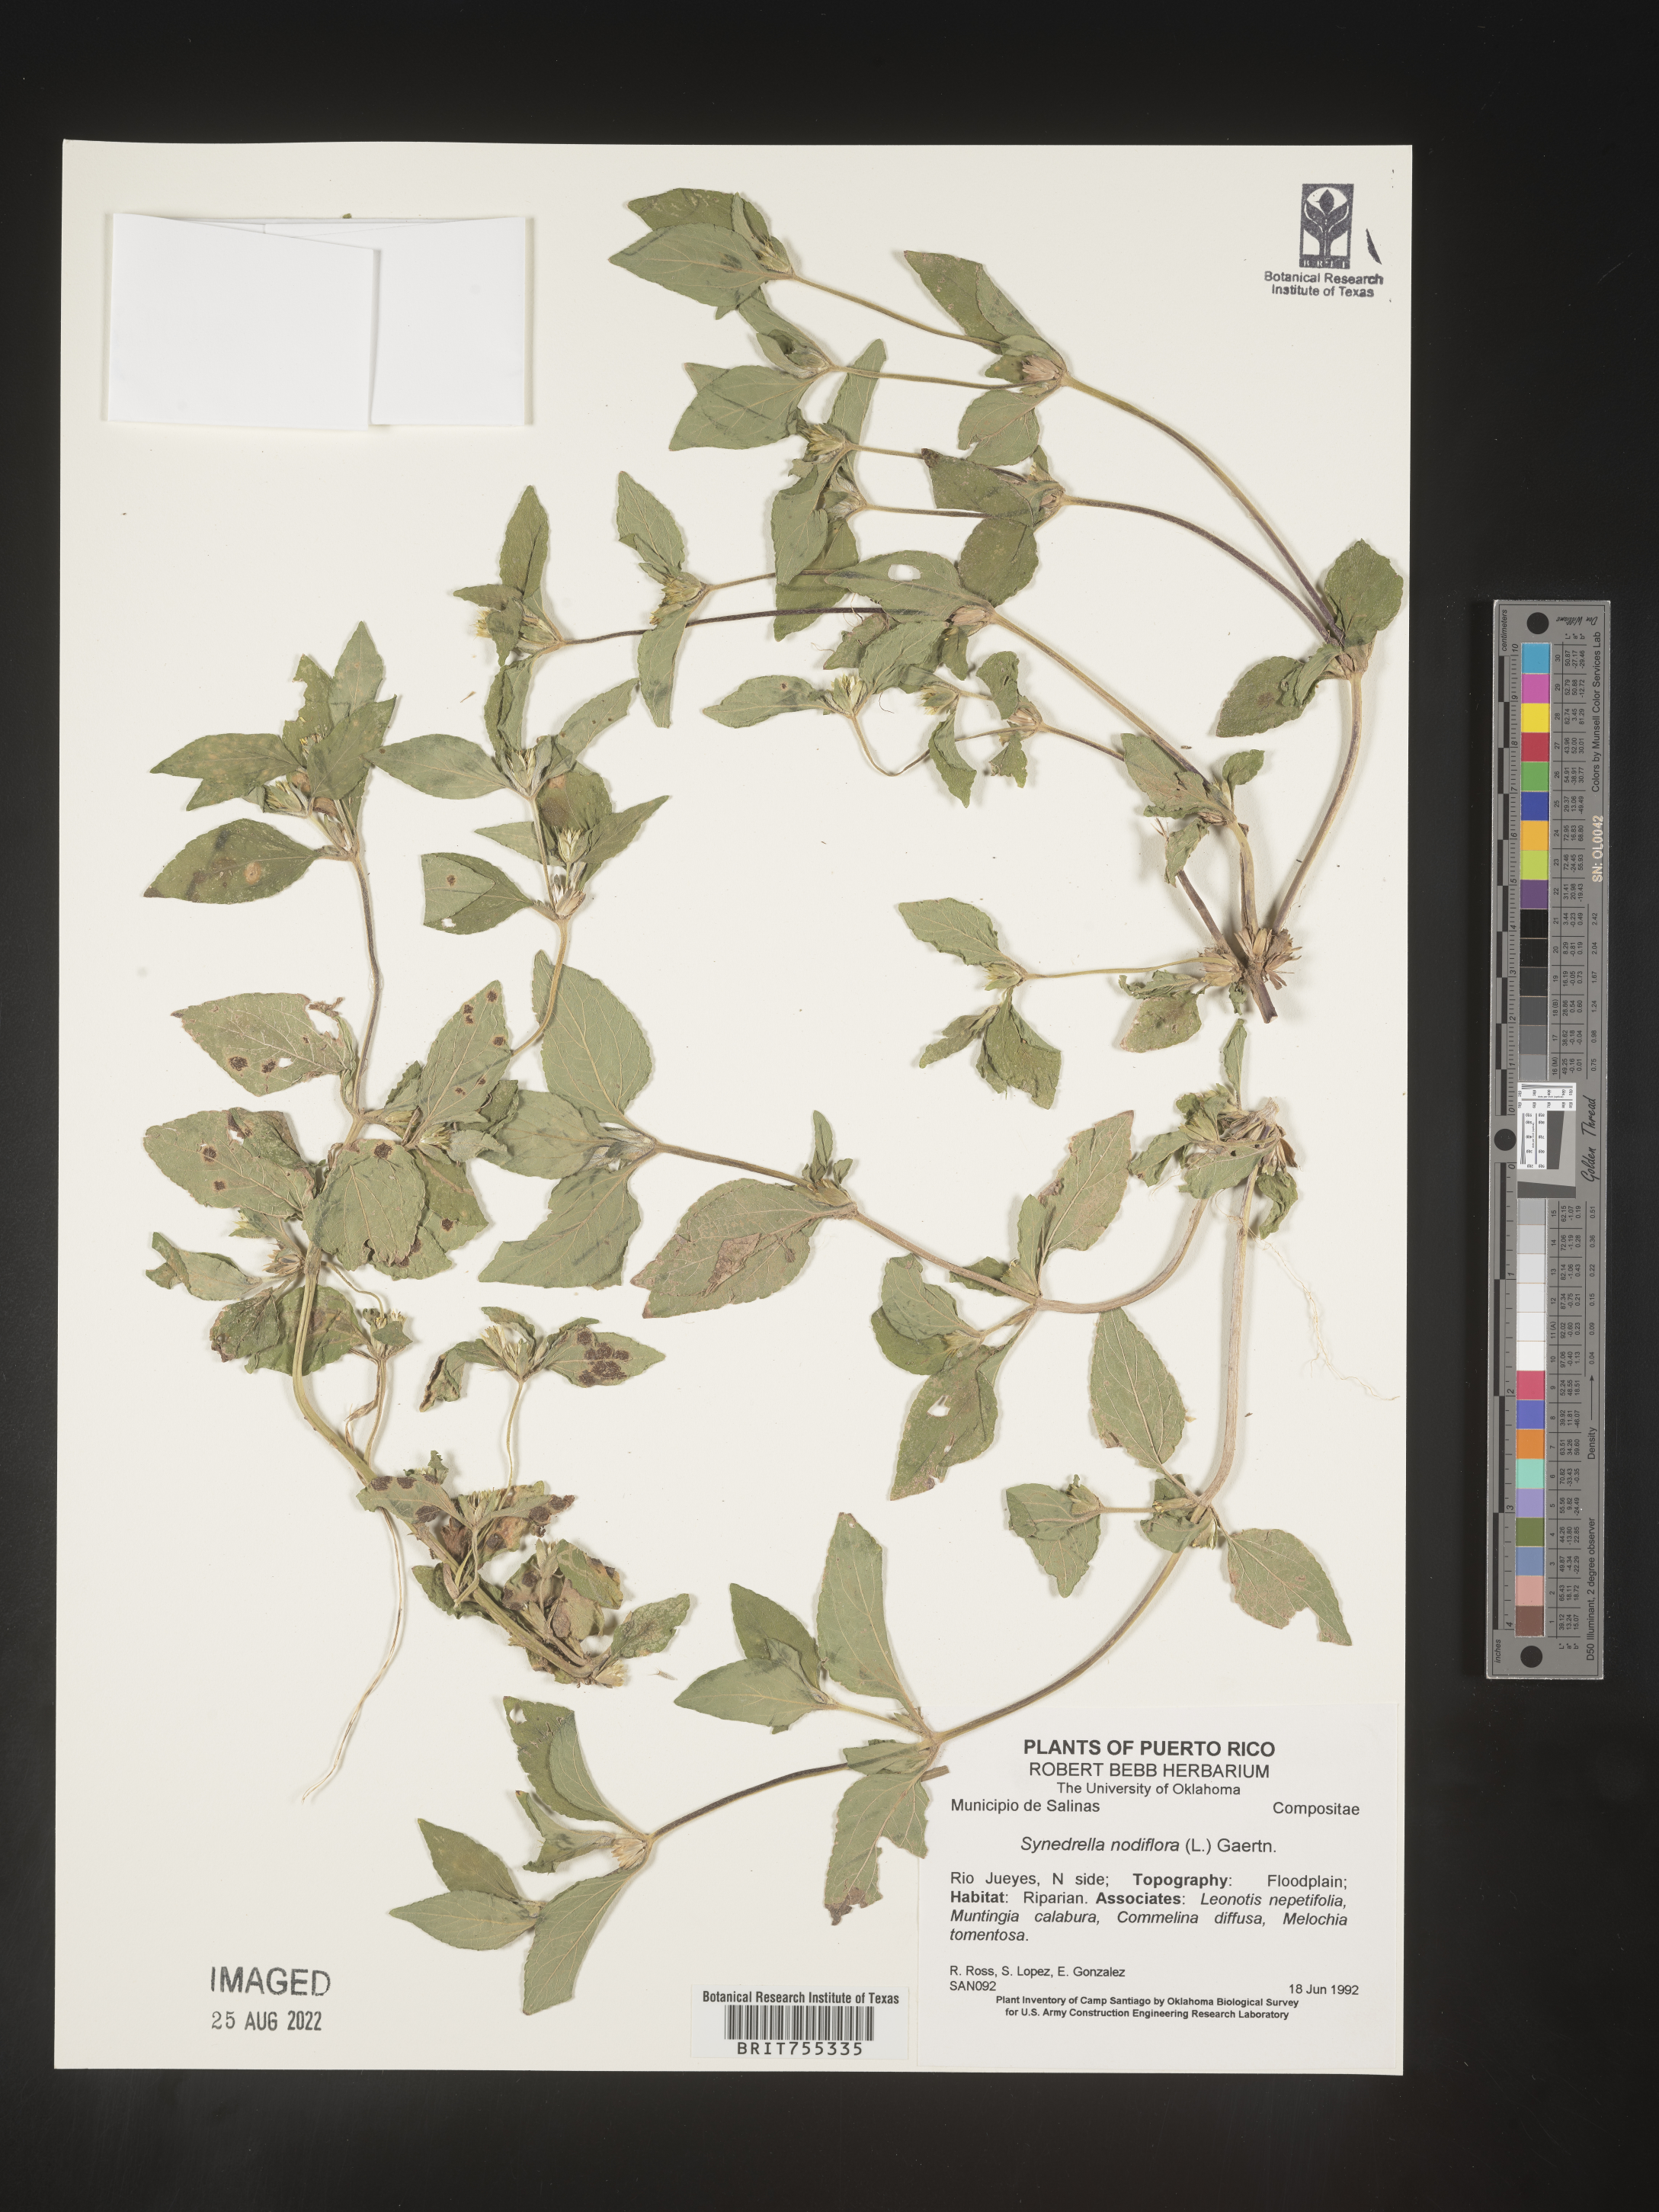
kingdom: Plantae
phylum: Tracheophyta
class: Magnoliopsida
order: Asterales
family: Asteraceae
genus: Synedrella
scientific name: Synedrella
